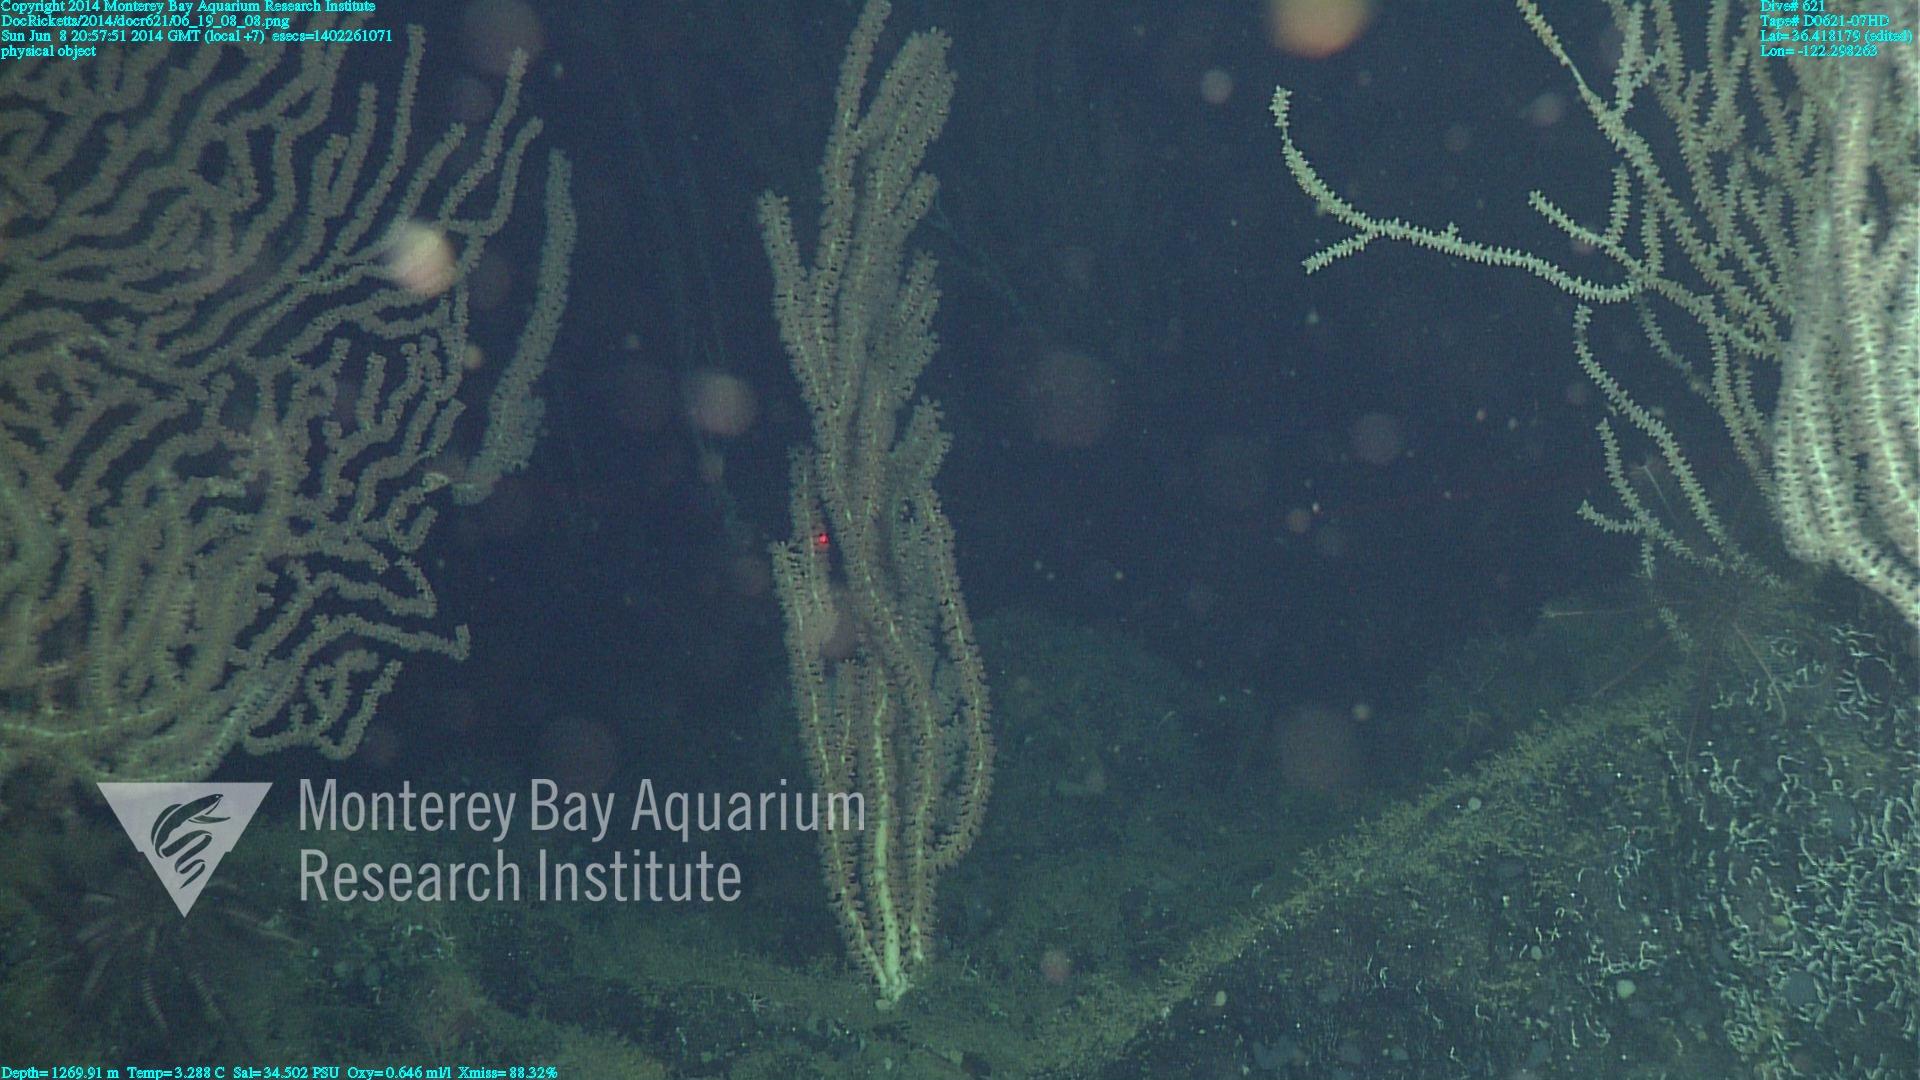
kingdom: Animalia
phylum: Cnidaria
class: Anthozoa
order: Scleralcyonacea
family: Keratoisididae
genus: Keratoisis
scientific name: Keratoisis
